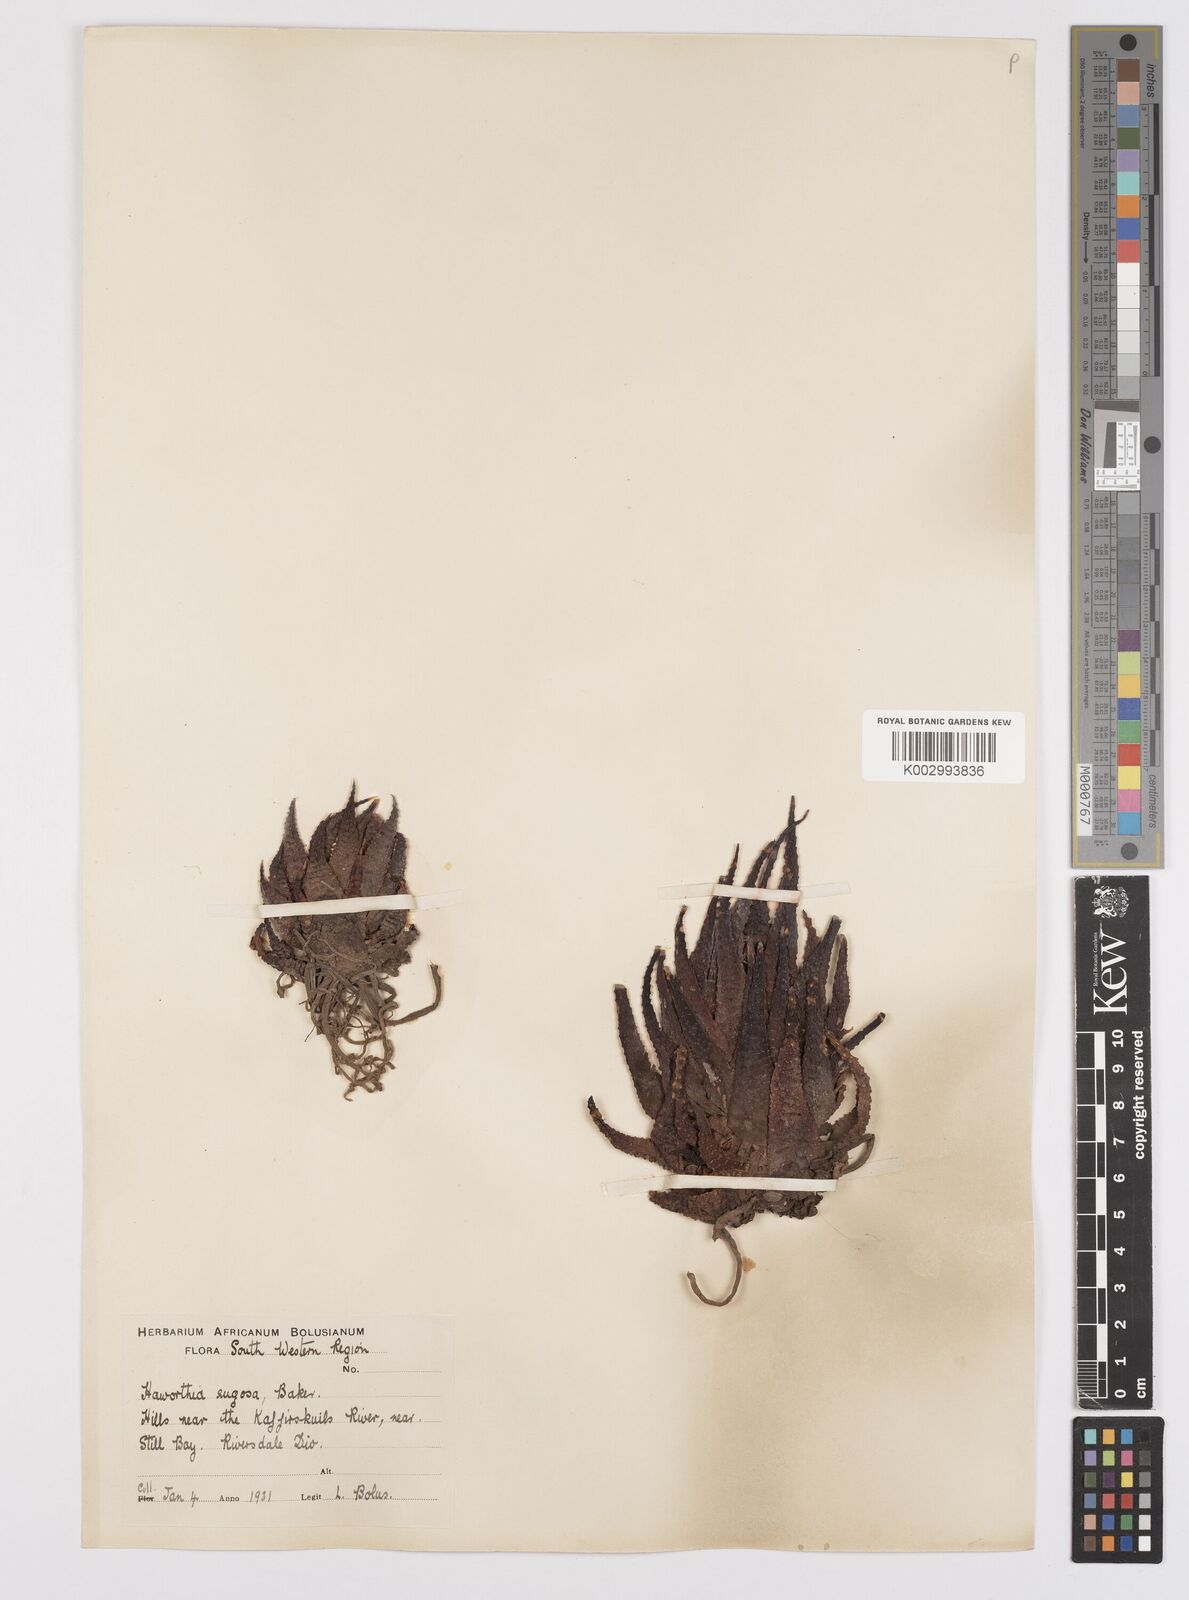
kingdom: Plantae
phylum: Tracheophyta
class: Liliopsida
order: Asparagales
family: Asphodelaceae
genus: Haworthiopsis
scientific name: Haworthiopsis attenuata
